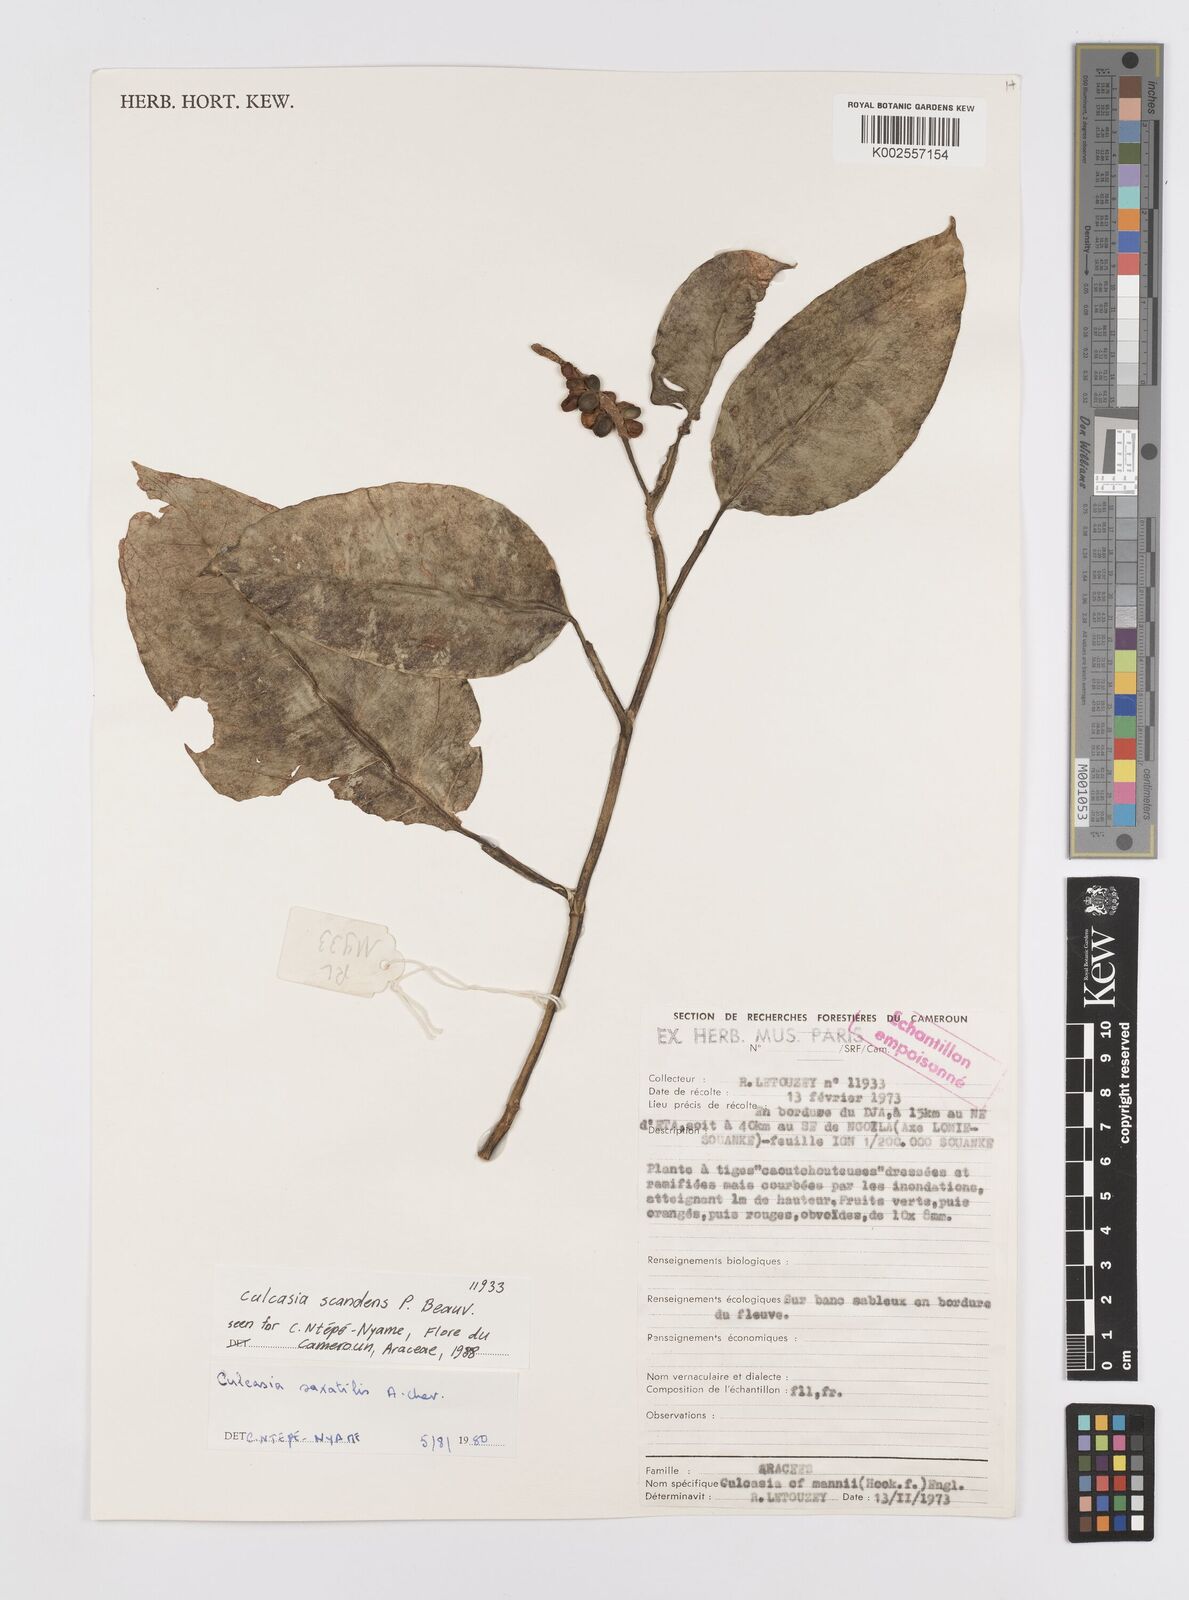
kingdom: Plantae
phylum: Tracheophyta
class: Liliopsida
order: Alismatales
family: Araceae
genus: Culcasia
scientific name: Culcasia scandens
